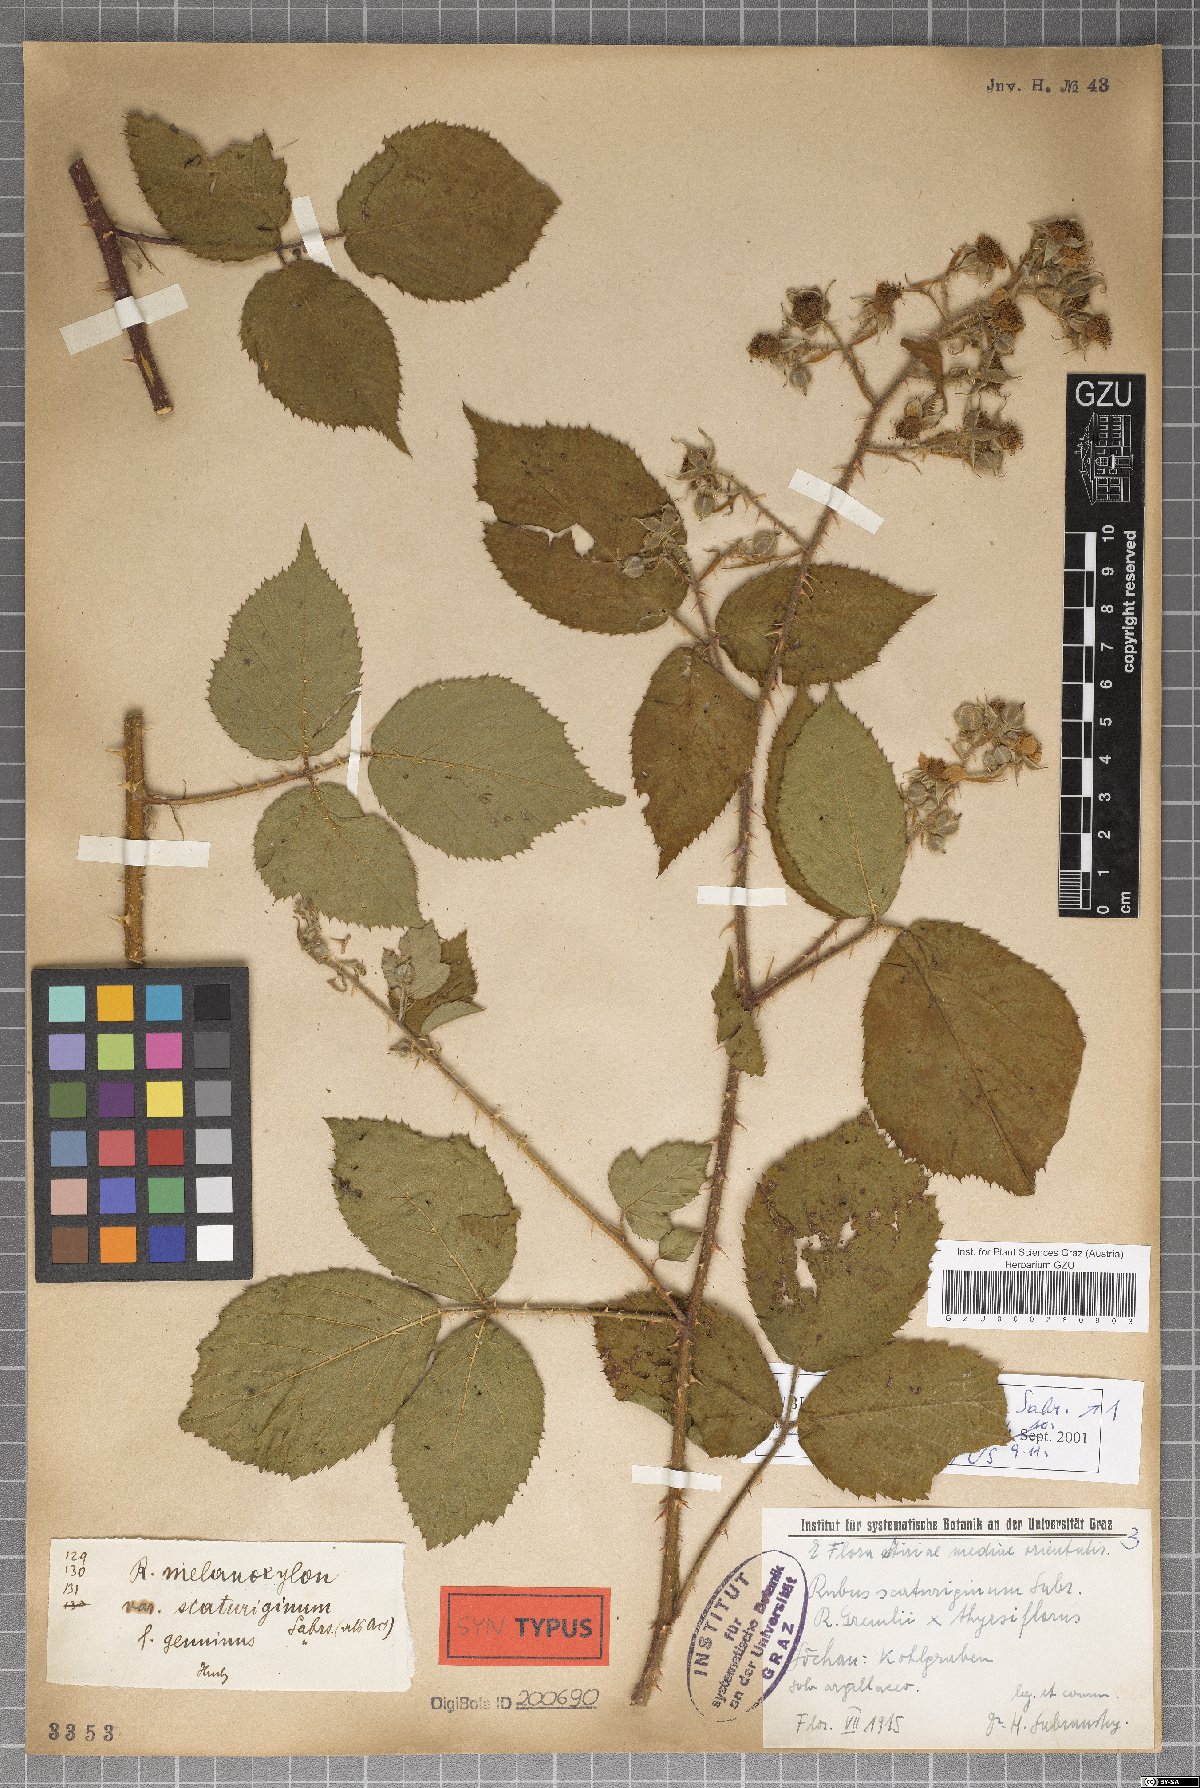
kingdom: Plantae
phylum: Tracheophyta
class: Magnoliopsida
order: Rosales
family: Rosaceae
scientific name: Rosaceae
